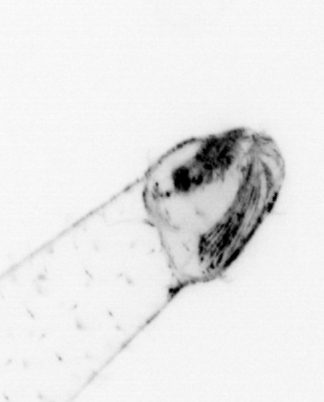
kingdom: Animalia
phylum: Chaetognatha
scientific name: Chaetognatha
